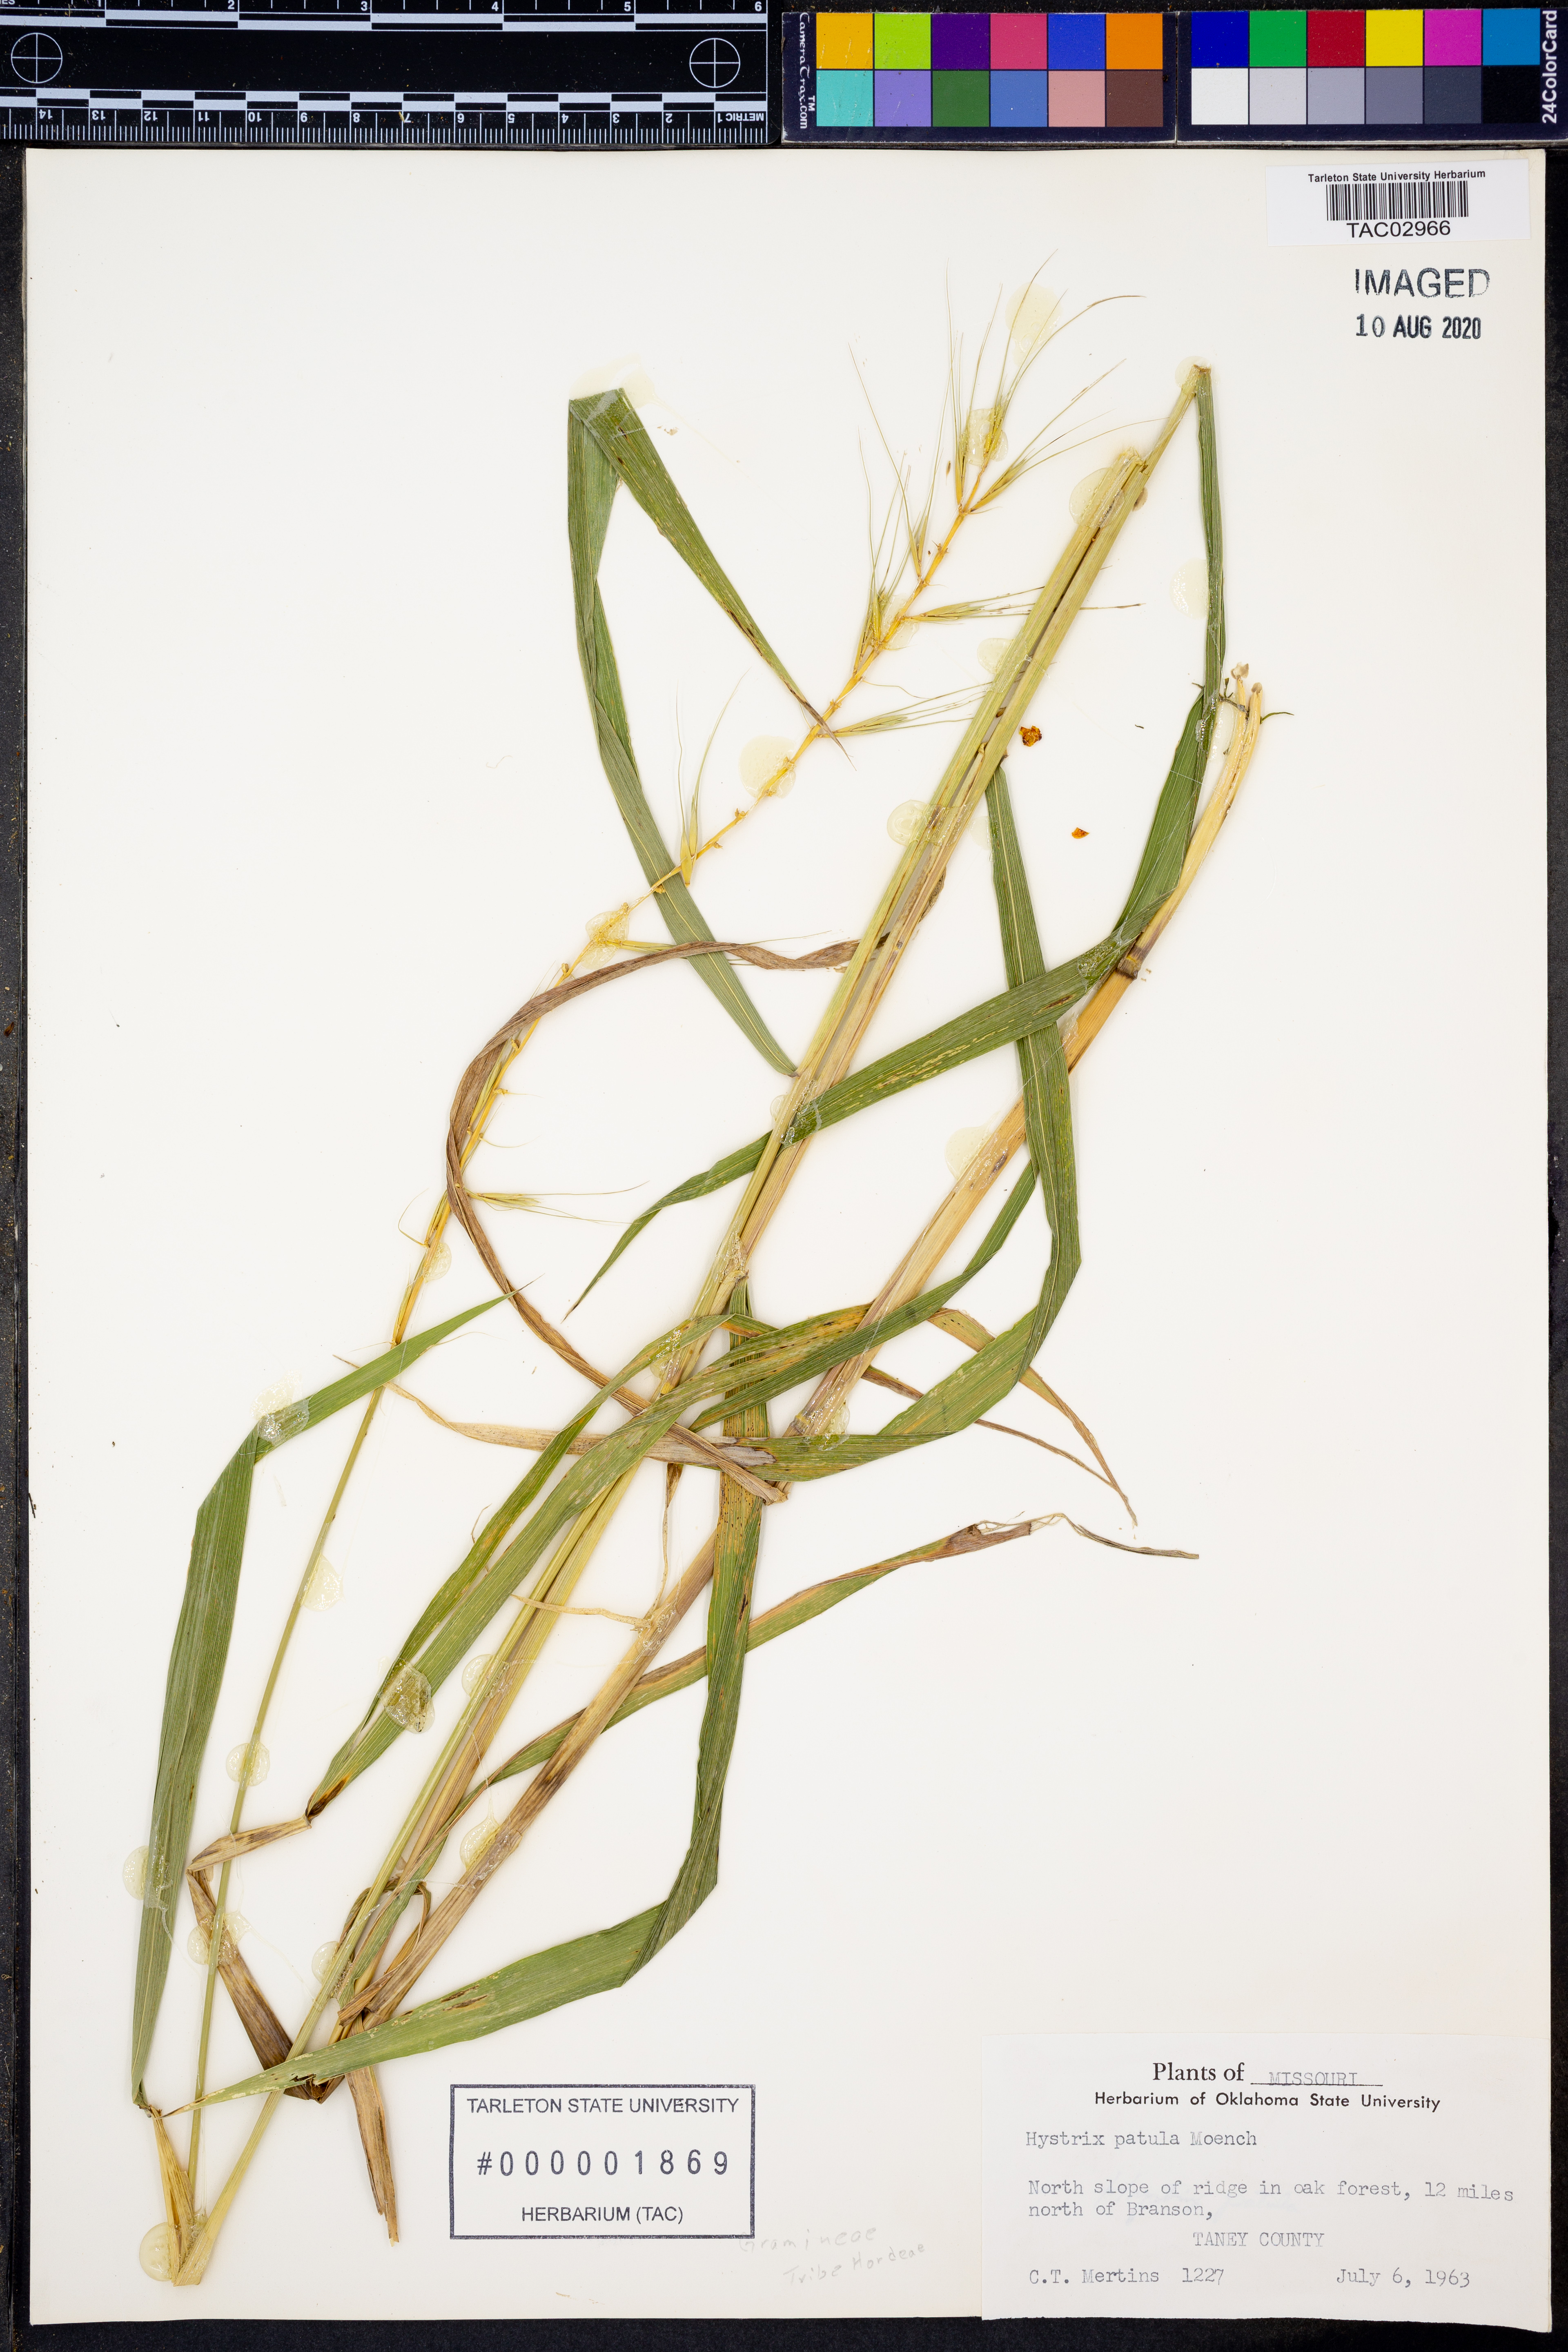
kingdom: Plantae
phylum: Tracheophyta
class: Liliopsida
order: Poales
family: Poaceae
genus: Elymus
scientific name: Elymus hystrix
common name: Bottlebrush grass
